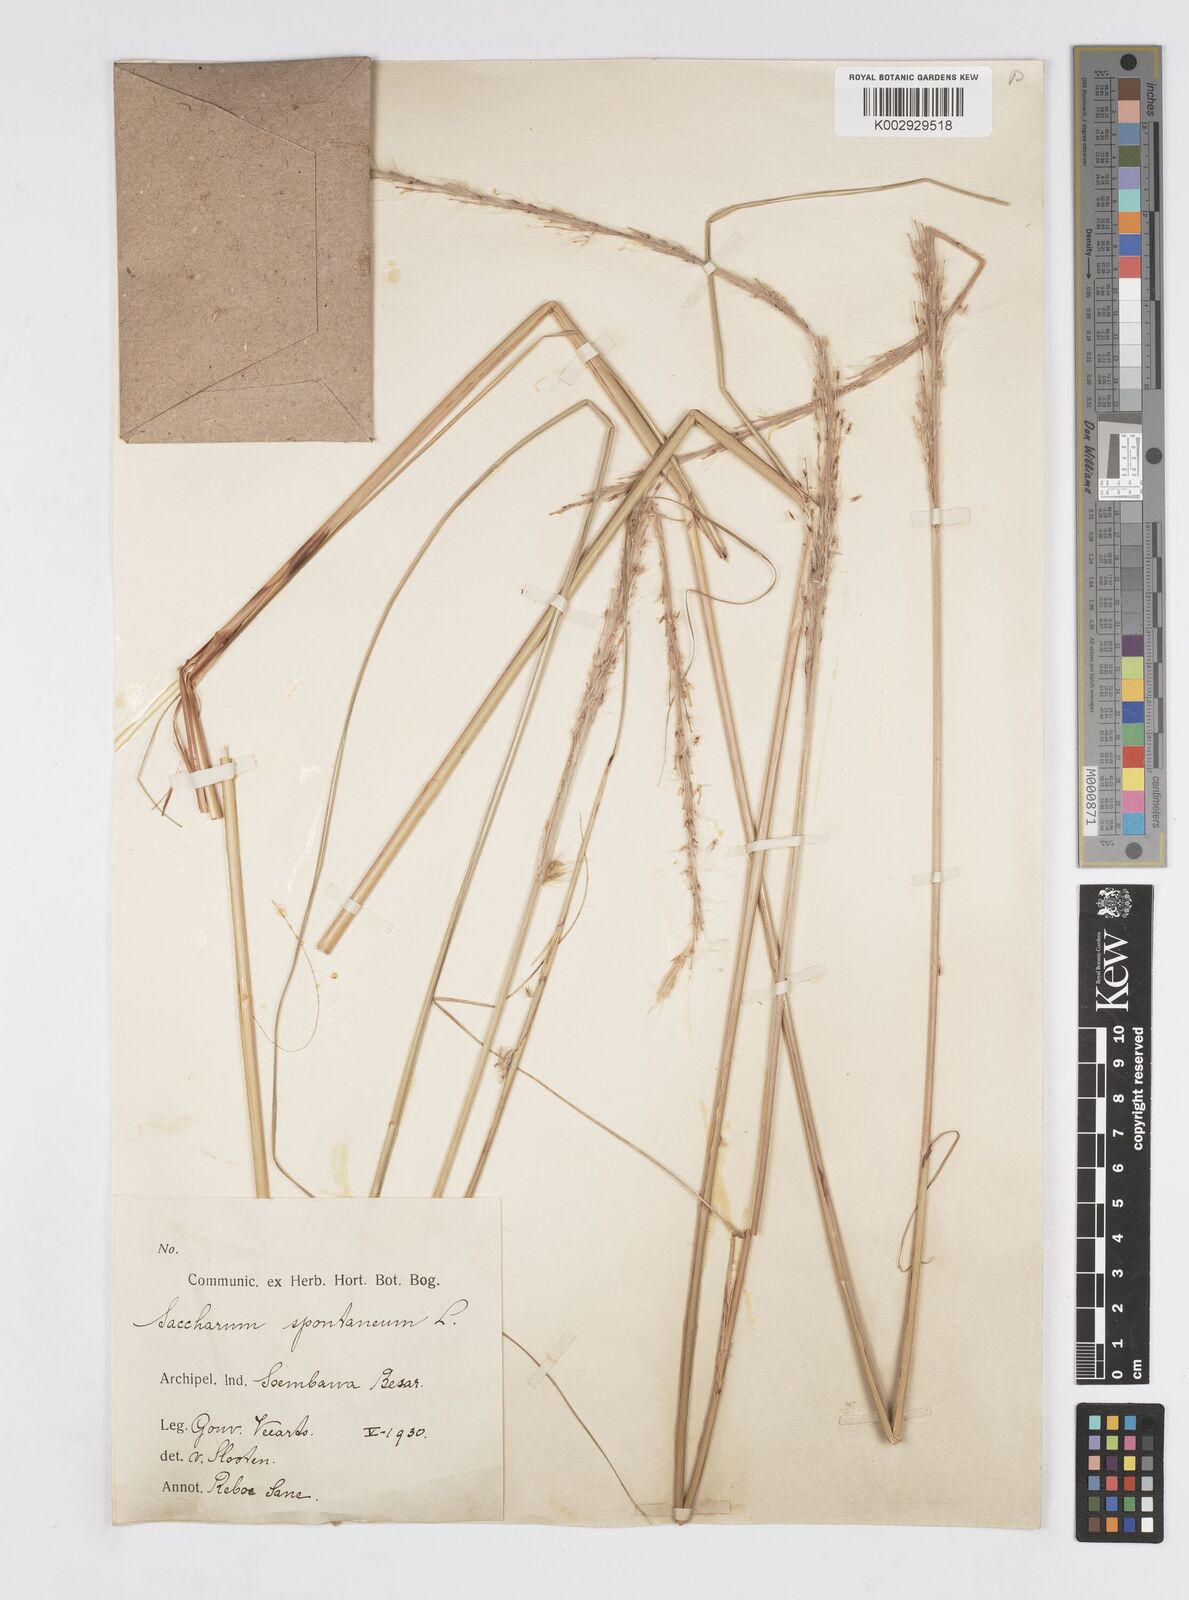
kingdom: Plantae
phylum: Tracheophyta
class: Liliopsida
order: Poales
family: Poaceae
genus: Saccharum
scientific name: Saccharum spontaneum
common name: Wild sugarcane
